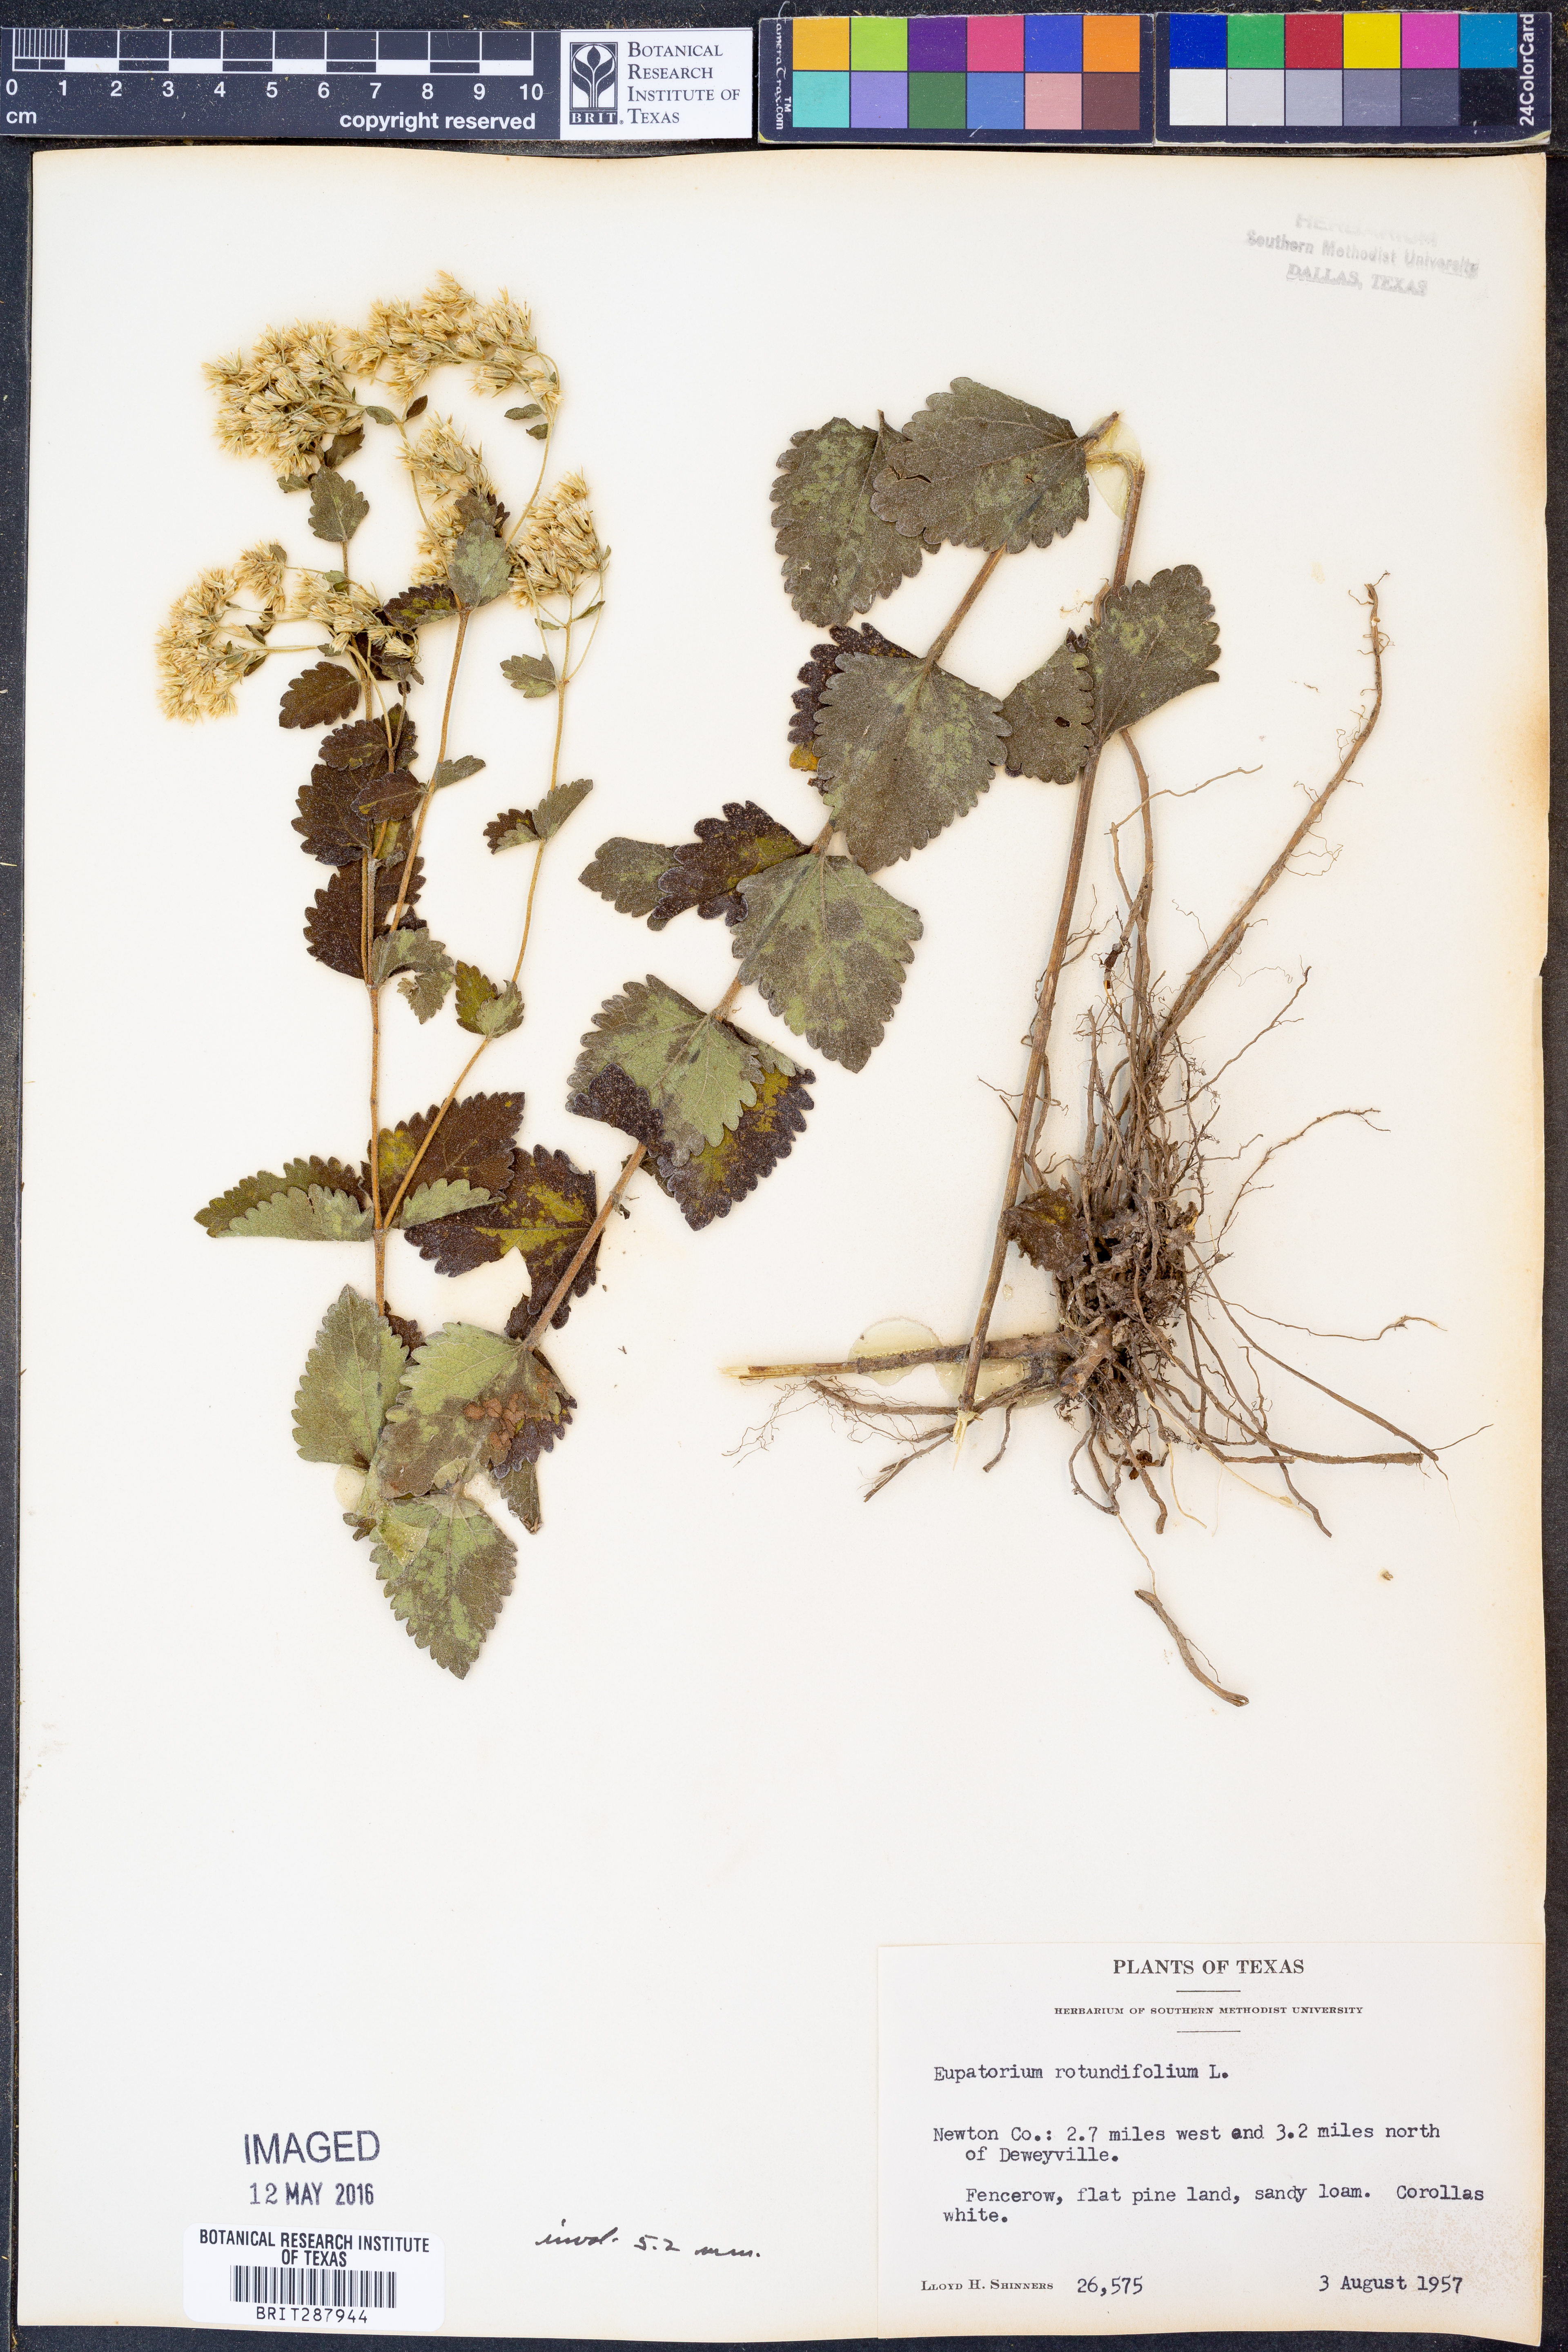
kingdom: Plantae
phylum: Tracheophyta
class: Magnoliopsida
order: Asterales
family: Asteraceae
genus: Eupatorium
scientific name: Eupatorium rotundifolium
